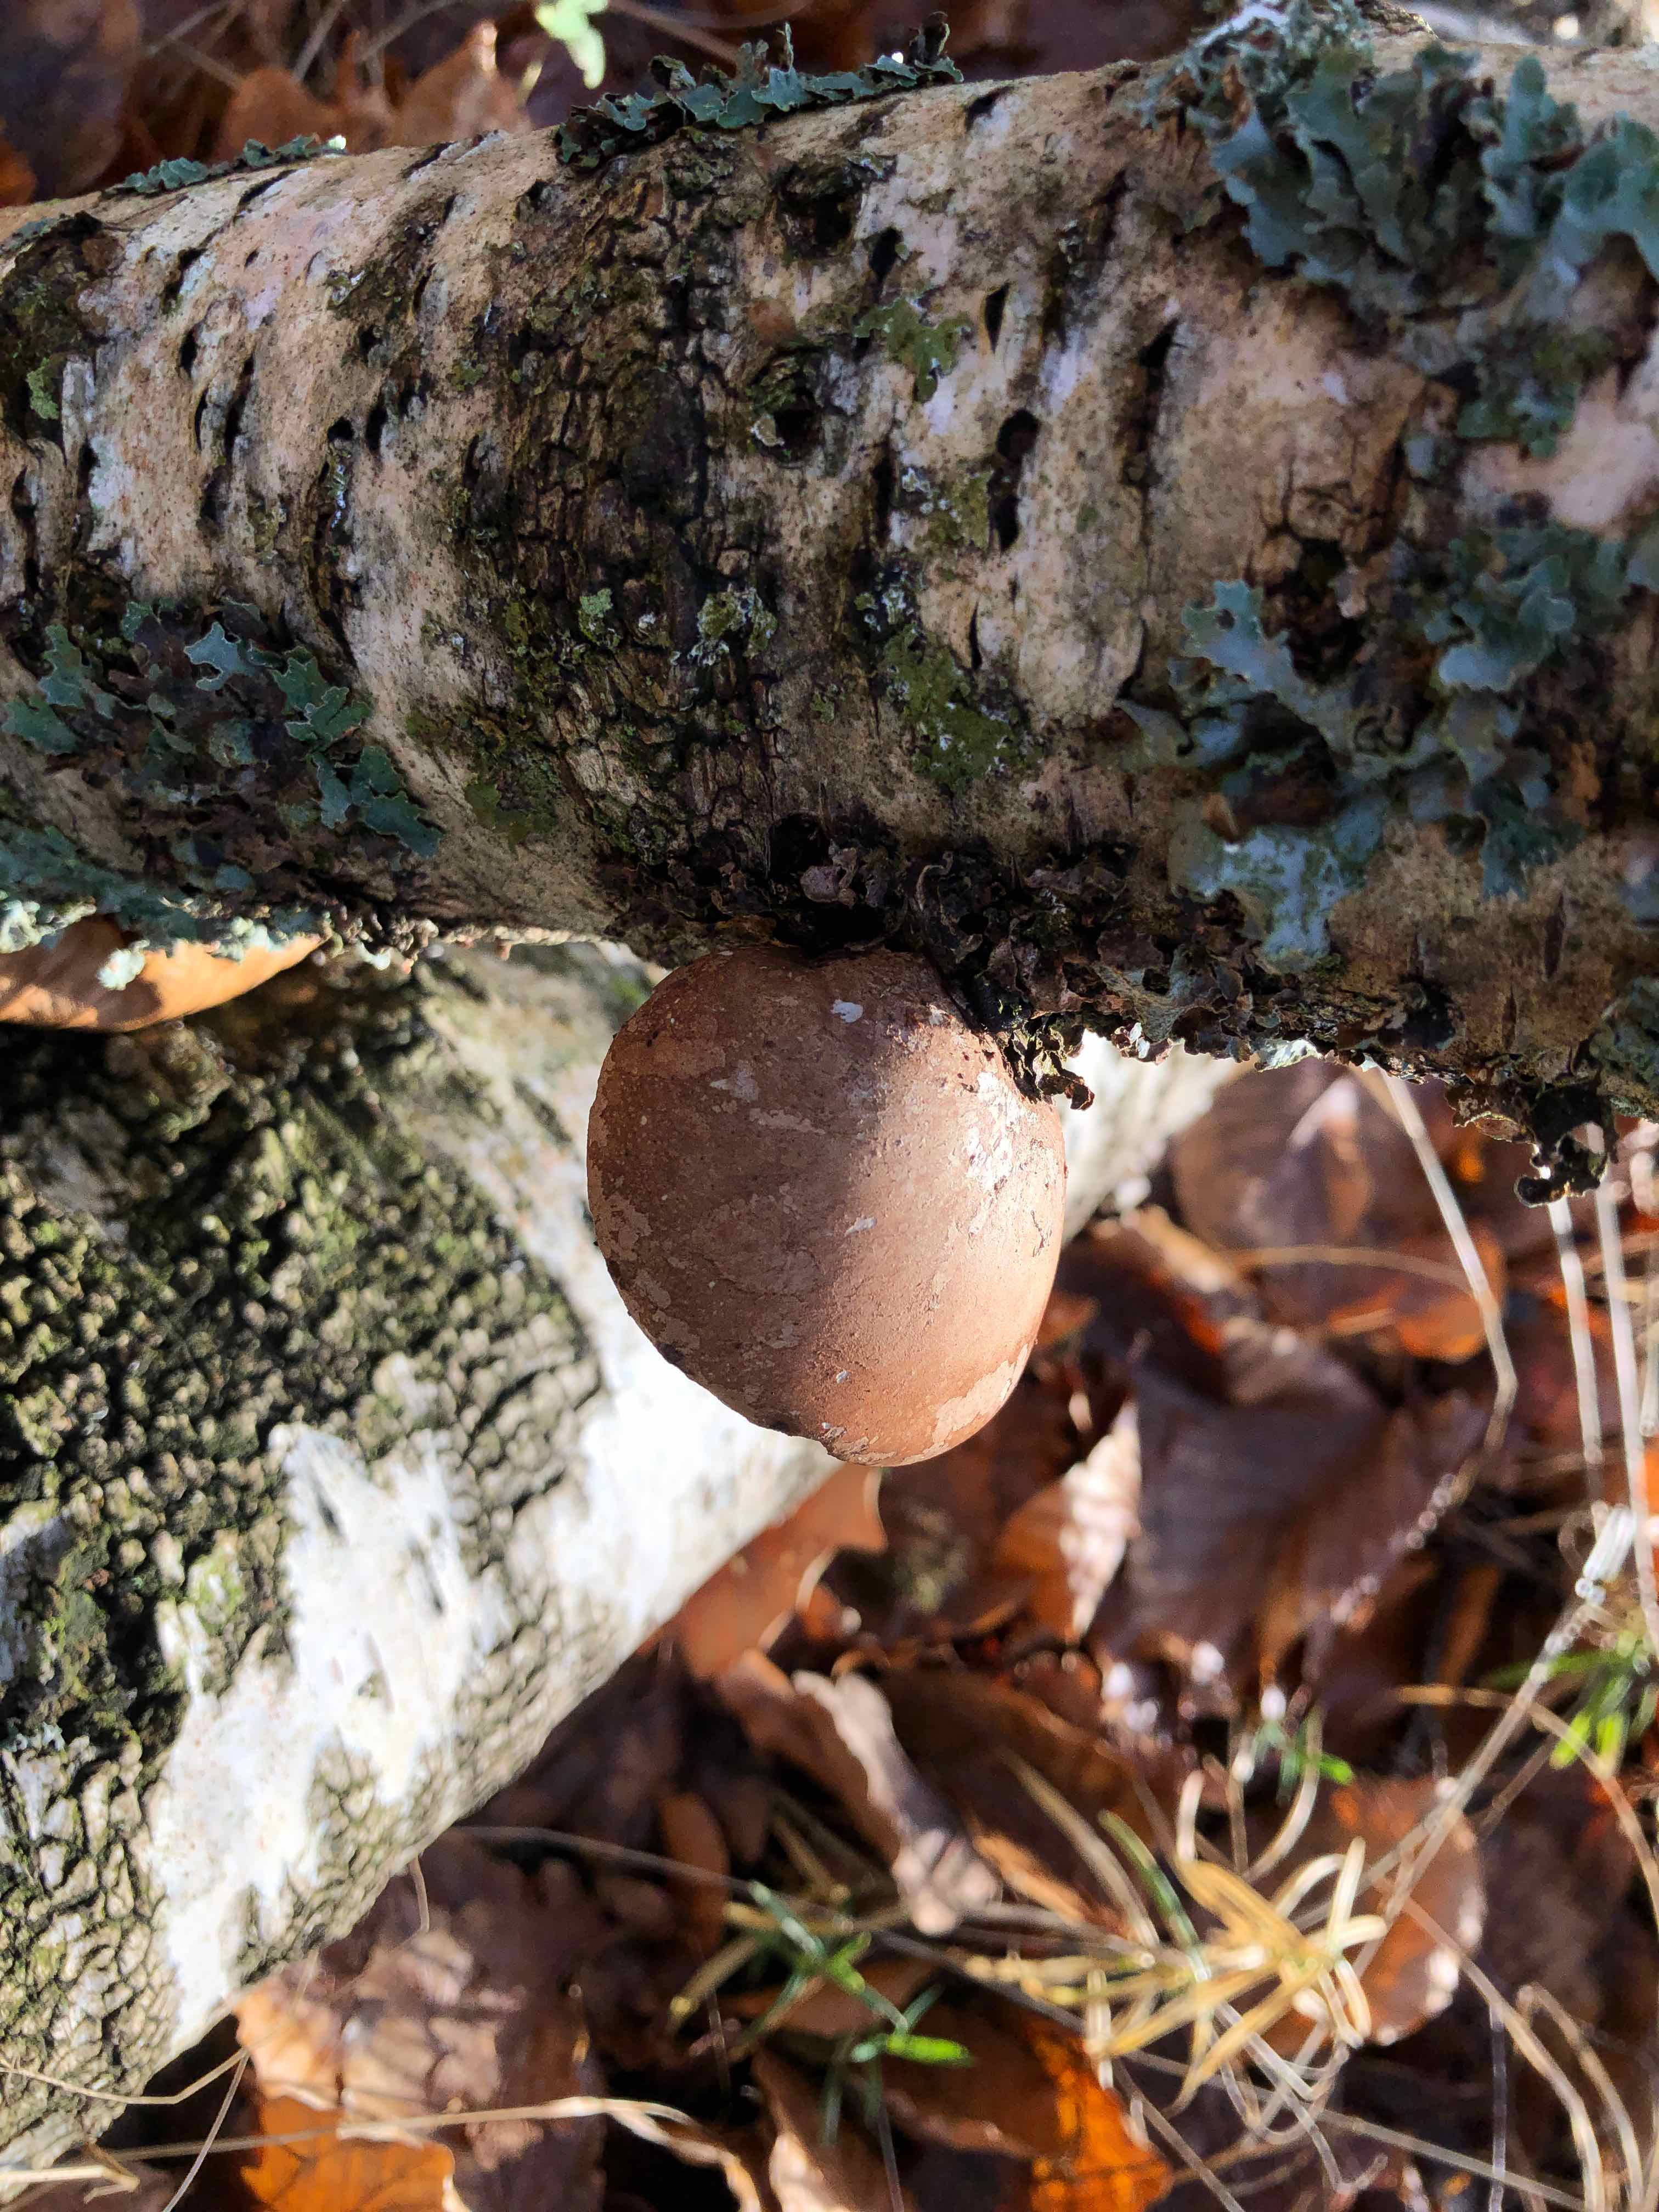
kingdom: Fungi
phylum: Basidiomycota
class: Agaricomycetes
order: Polyporales
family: Fomitopsidaceae
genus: Fomitopsis
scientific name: Fomitopsis betulina
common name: birkeporesvamp
